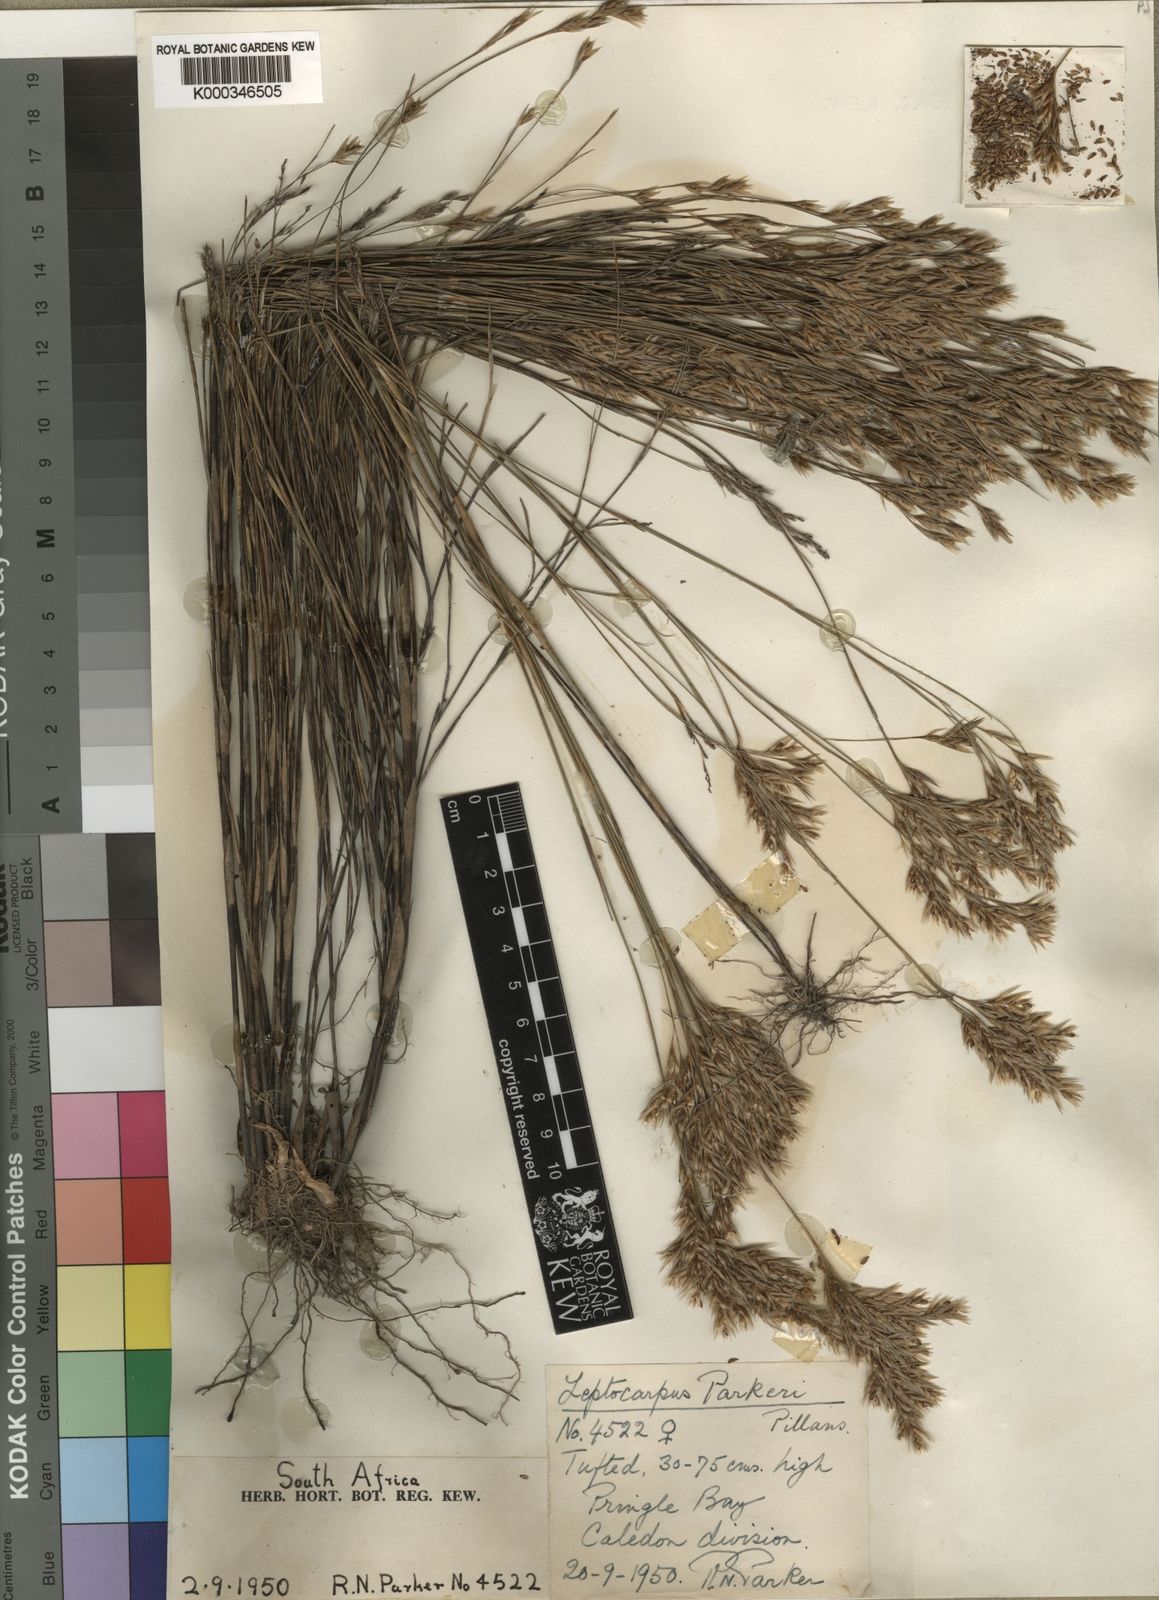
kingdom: Plantae
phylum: Tracheophyta
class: Liliopsida
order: Poales
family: Restionaceae
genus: Restio
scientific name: Restio festuciformis
